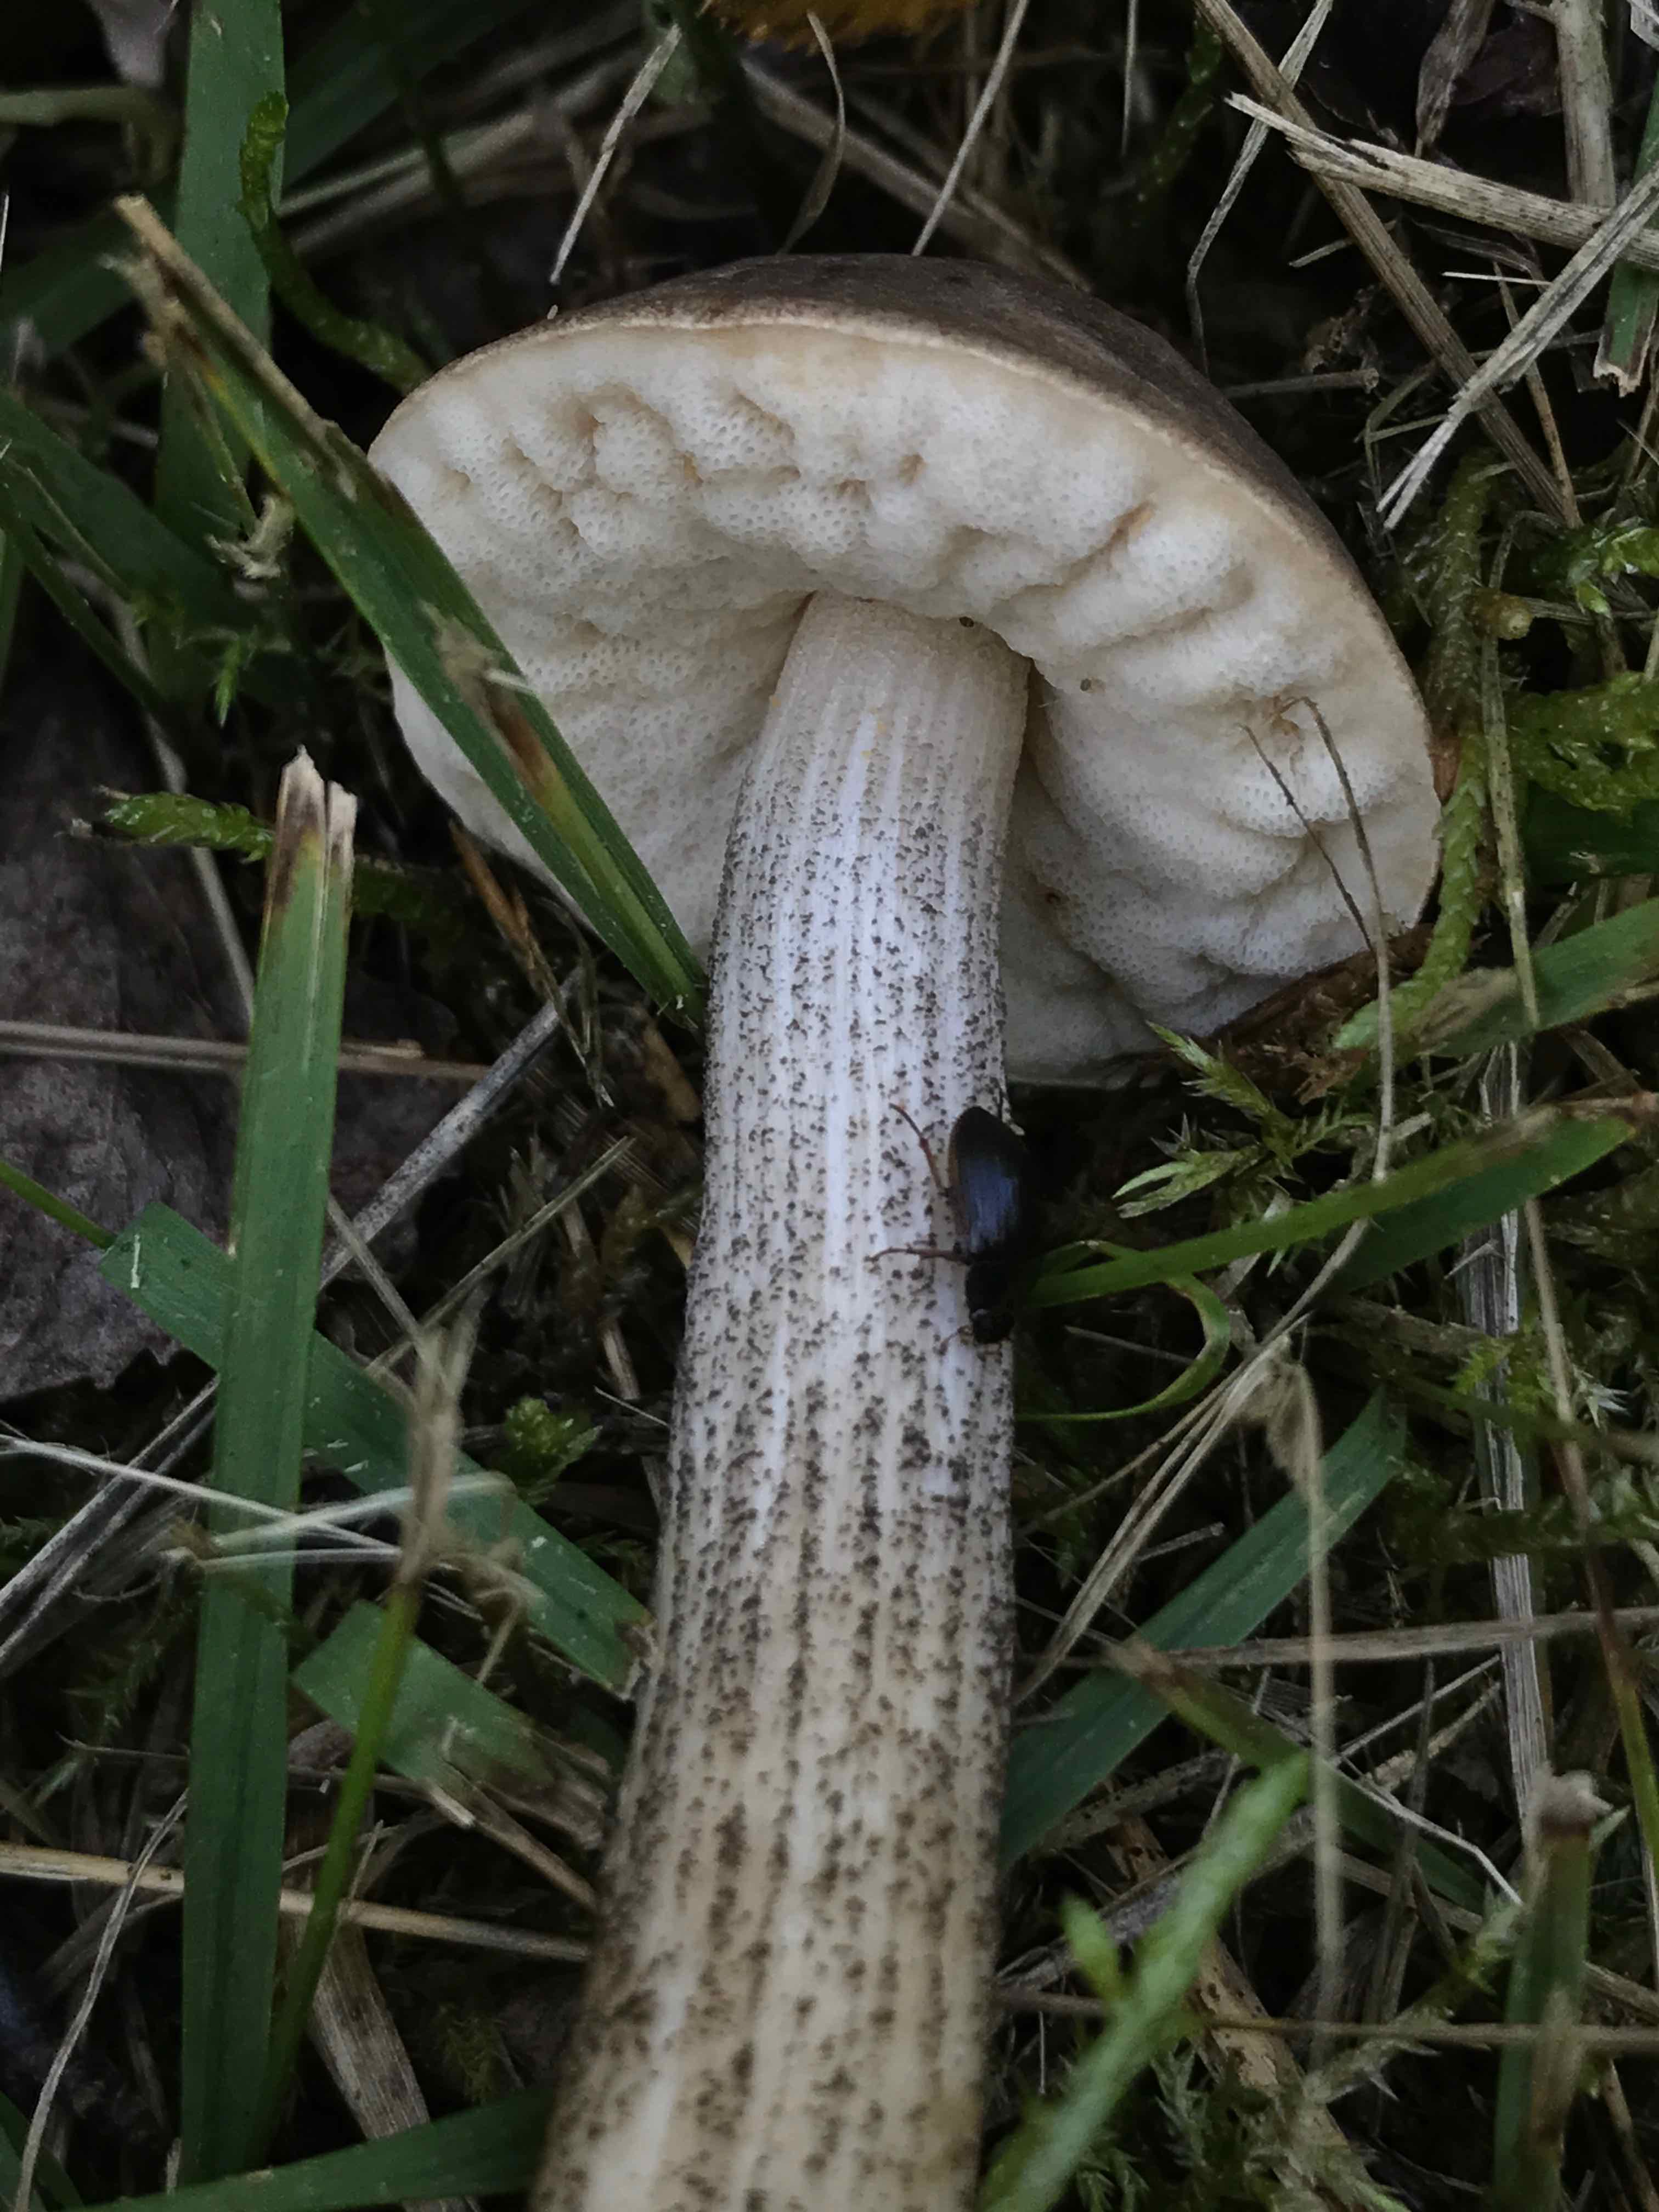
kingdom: Fungi
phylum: Basidiomycota
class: Agaricomycetes
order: Boletales
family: Boletaceae
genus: Leccinum
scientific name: Leccinum
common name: skælrørhat
